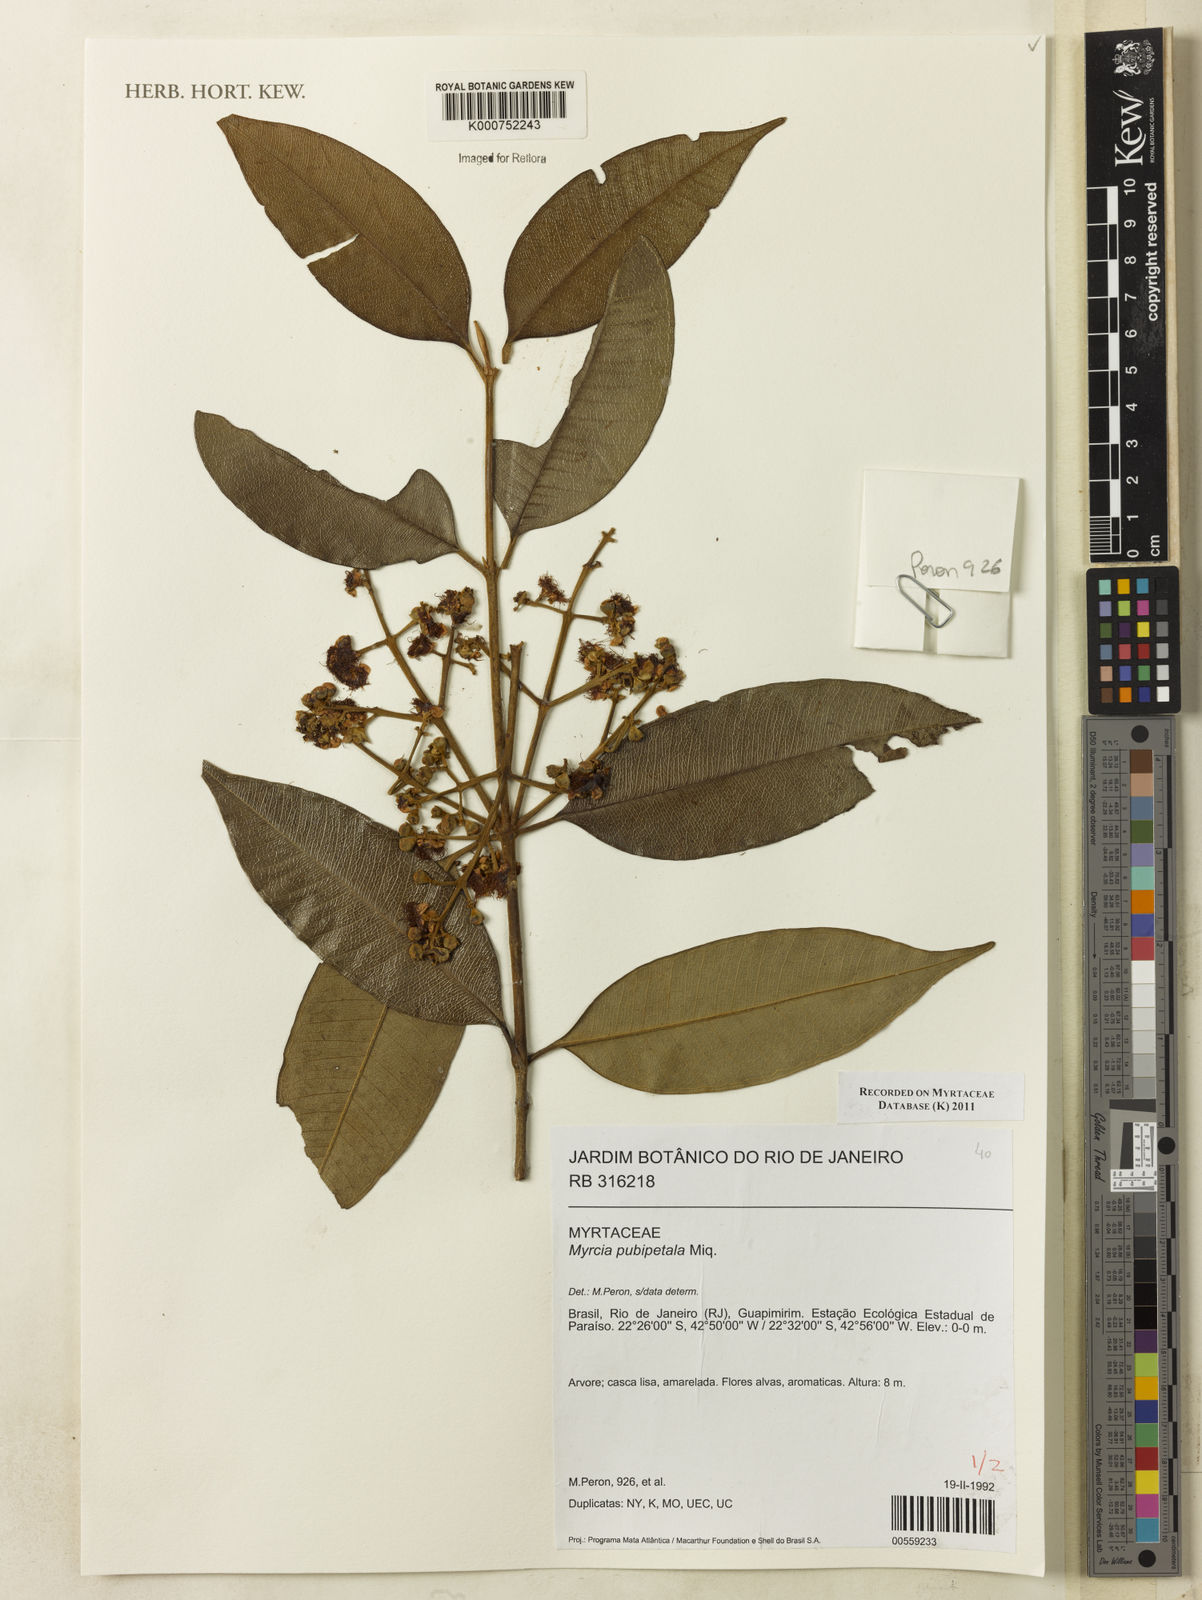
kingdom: Plantae
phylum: Tracheophyta
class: Magnoliopsida
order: Myrtales
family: Myrtaceae
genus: Myrcia
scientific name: Myrcia pubipetala
